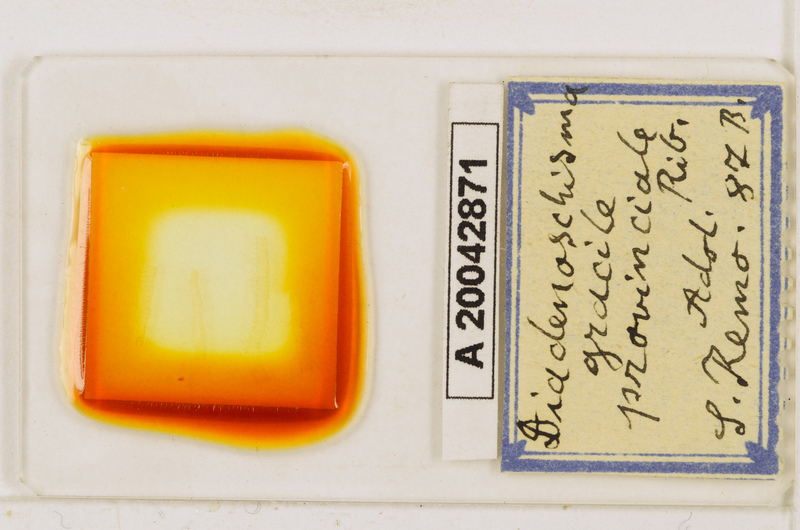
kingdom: Animalia
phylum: Arthropoda
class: Chilopoda
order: Geophilomorpha
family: Himantariidae
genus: Stigmatogaster
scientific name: Stigmatogaster
